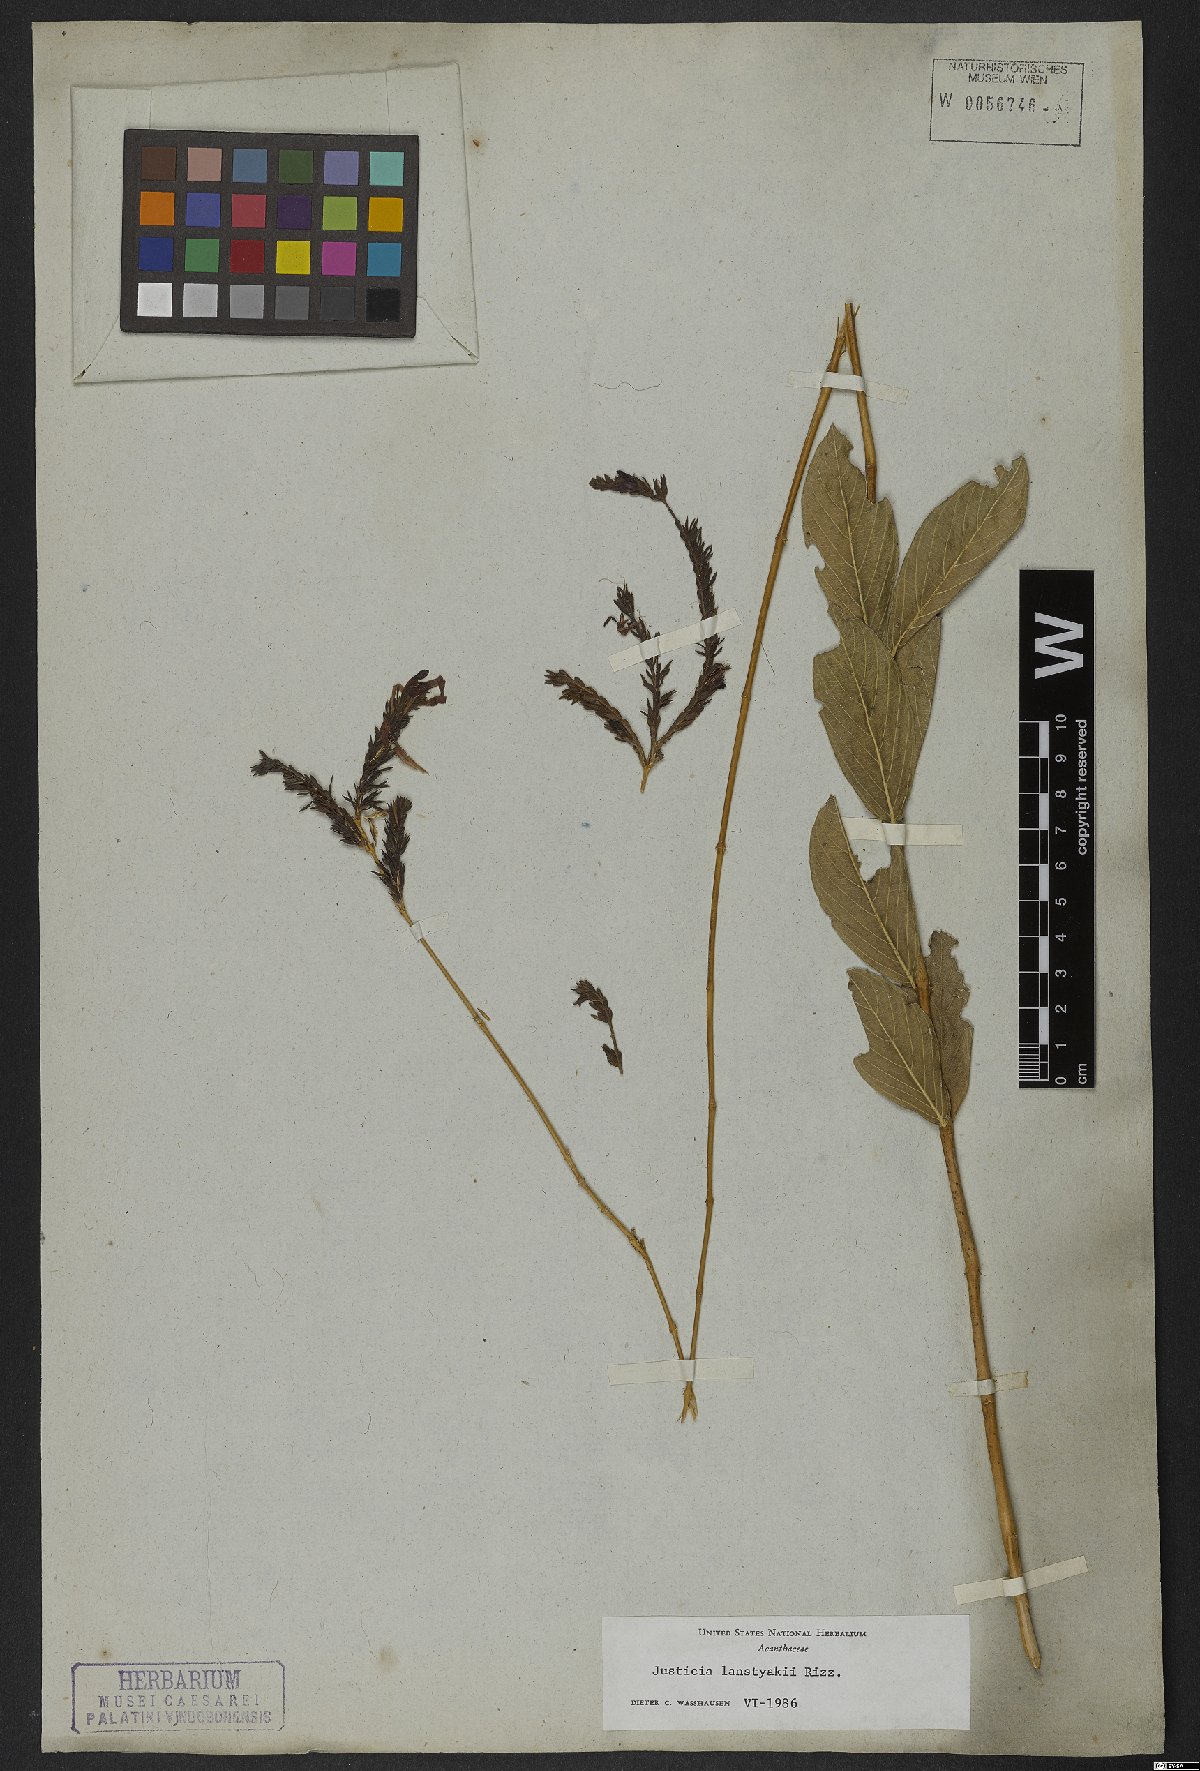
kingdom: Plantae
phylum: Tracheophyta
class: Magnoliopsida
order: Lamiales
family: Acanthaceae
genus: Justicia
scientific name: Justicia lanstyakii
